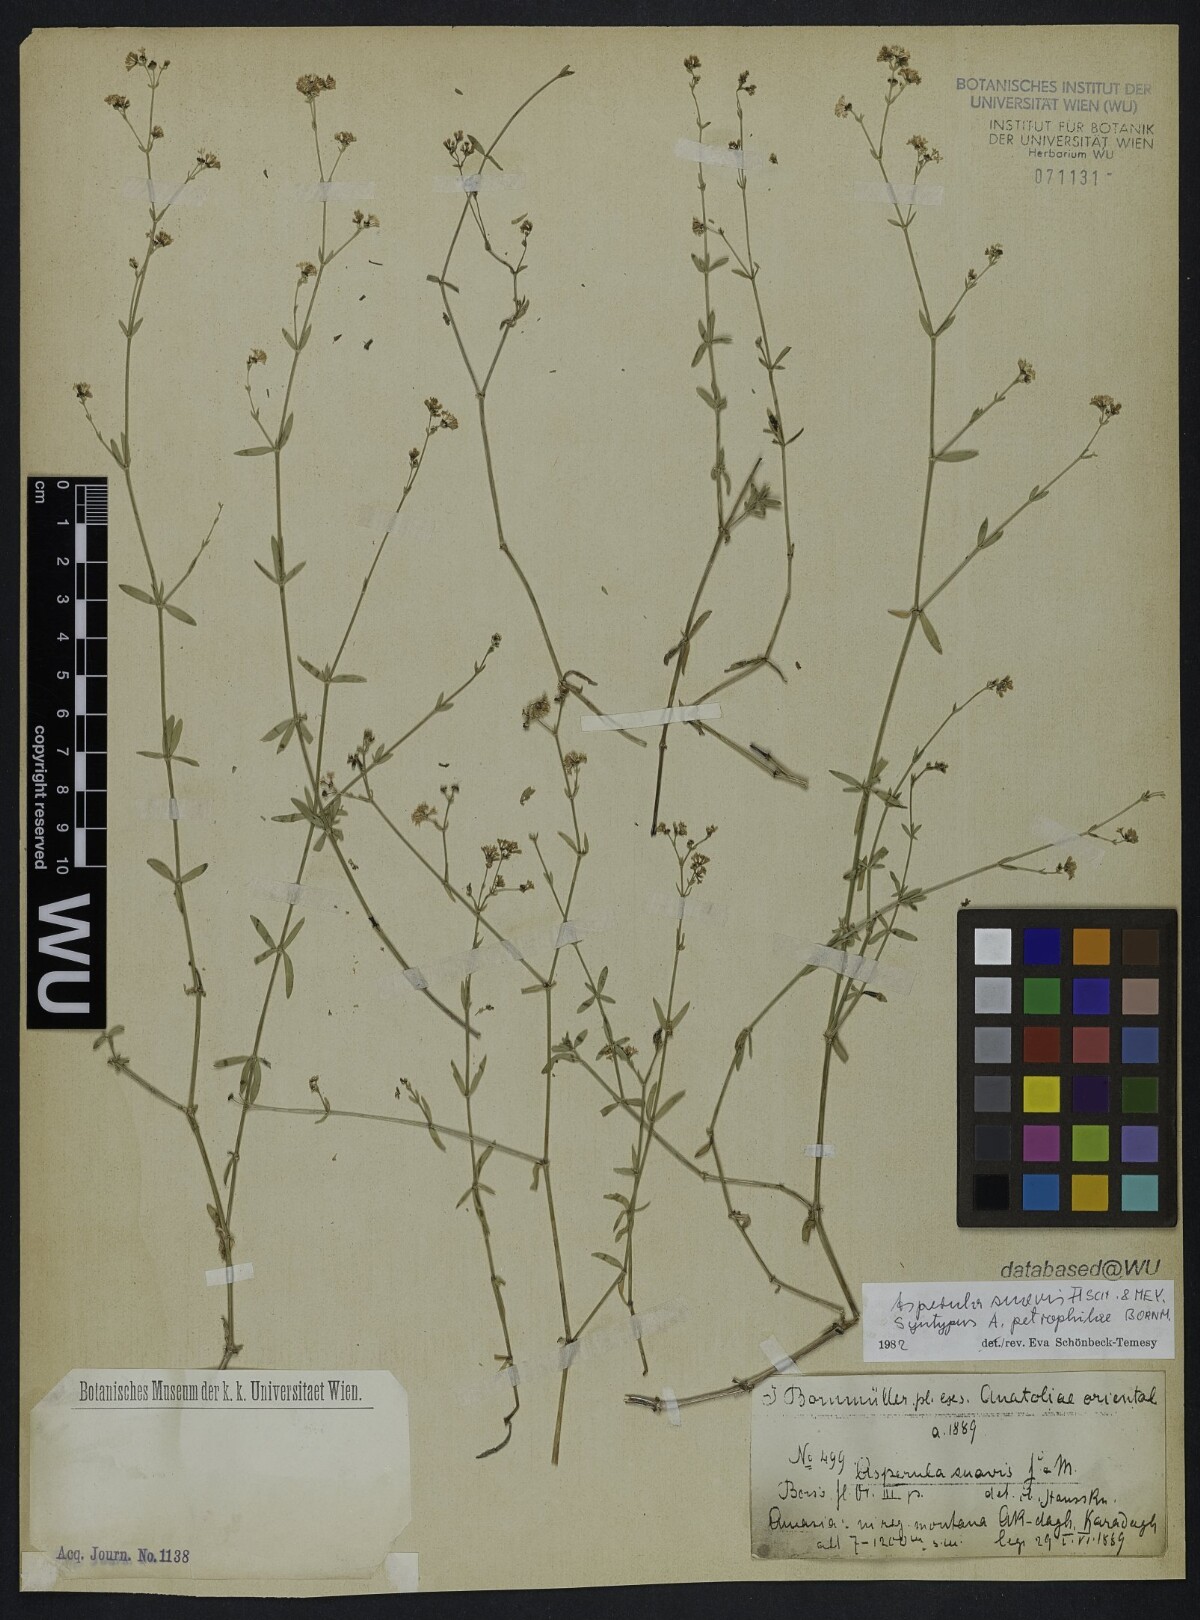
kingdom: Plantae
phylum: Tracheophyta
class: Magnoliopsida
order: Gentianales
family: Rubiaceae
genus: Asperula
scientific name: Asperula suavis
